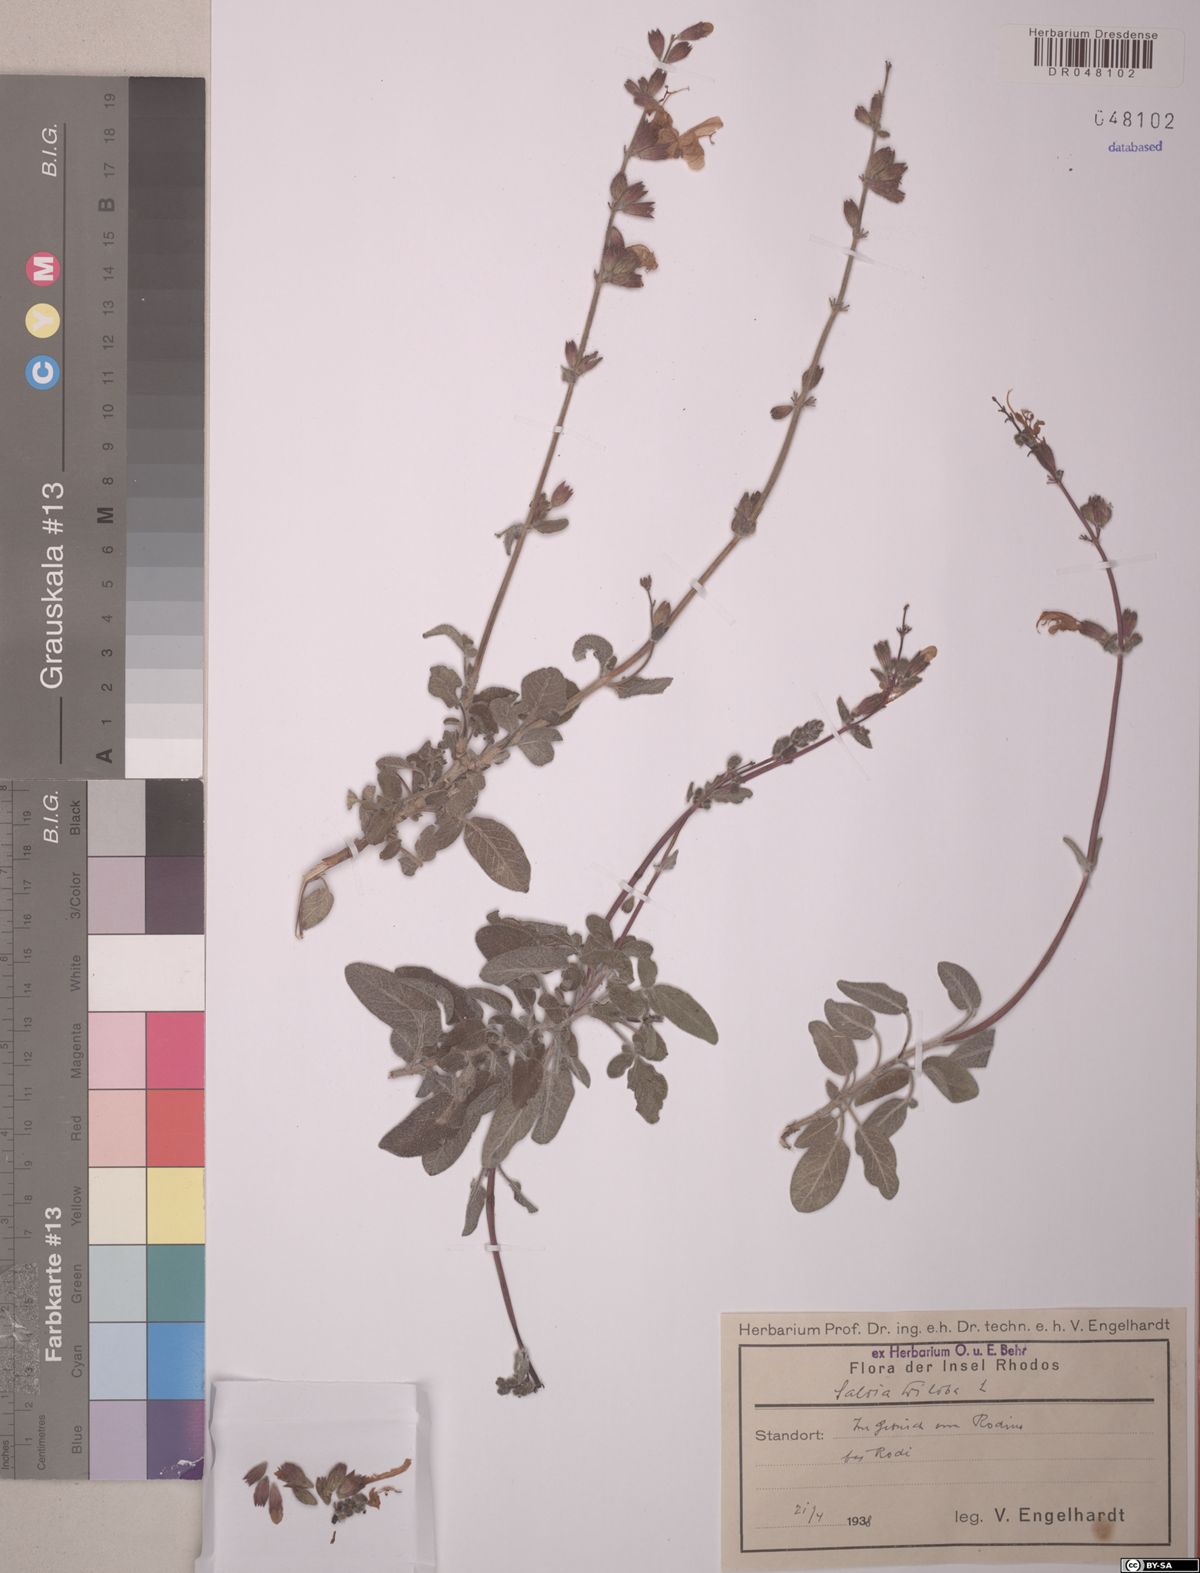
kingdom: Plantae
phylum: Tracheophyta
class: Magnoliopsida
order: Lamiales
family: Lamiaceae
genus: Salvia
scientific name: Salvia fruticosa
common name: Greek sage
